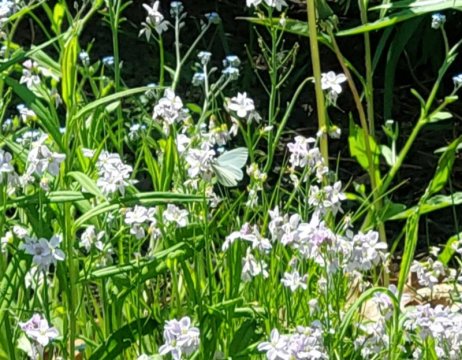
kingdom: Animalia
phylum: Arthropoda
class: Insecta
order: Lepidoptera
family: Pieridae
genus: Pieris
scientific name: Pieris oleracea
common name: Mustard White
